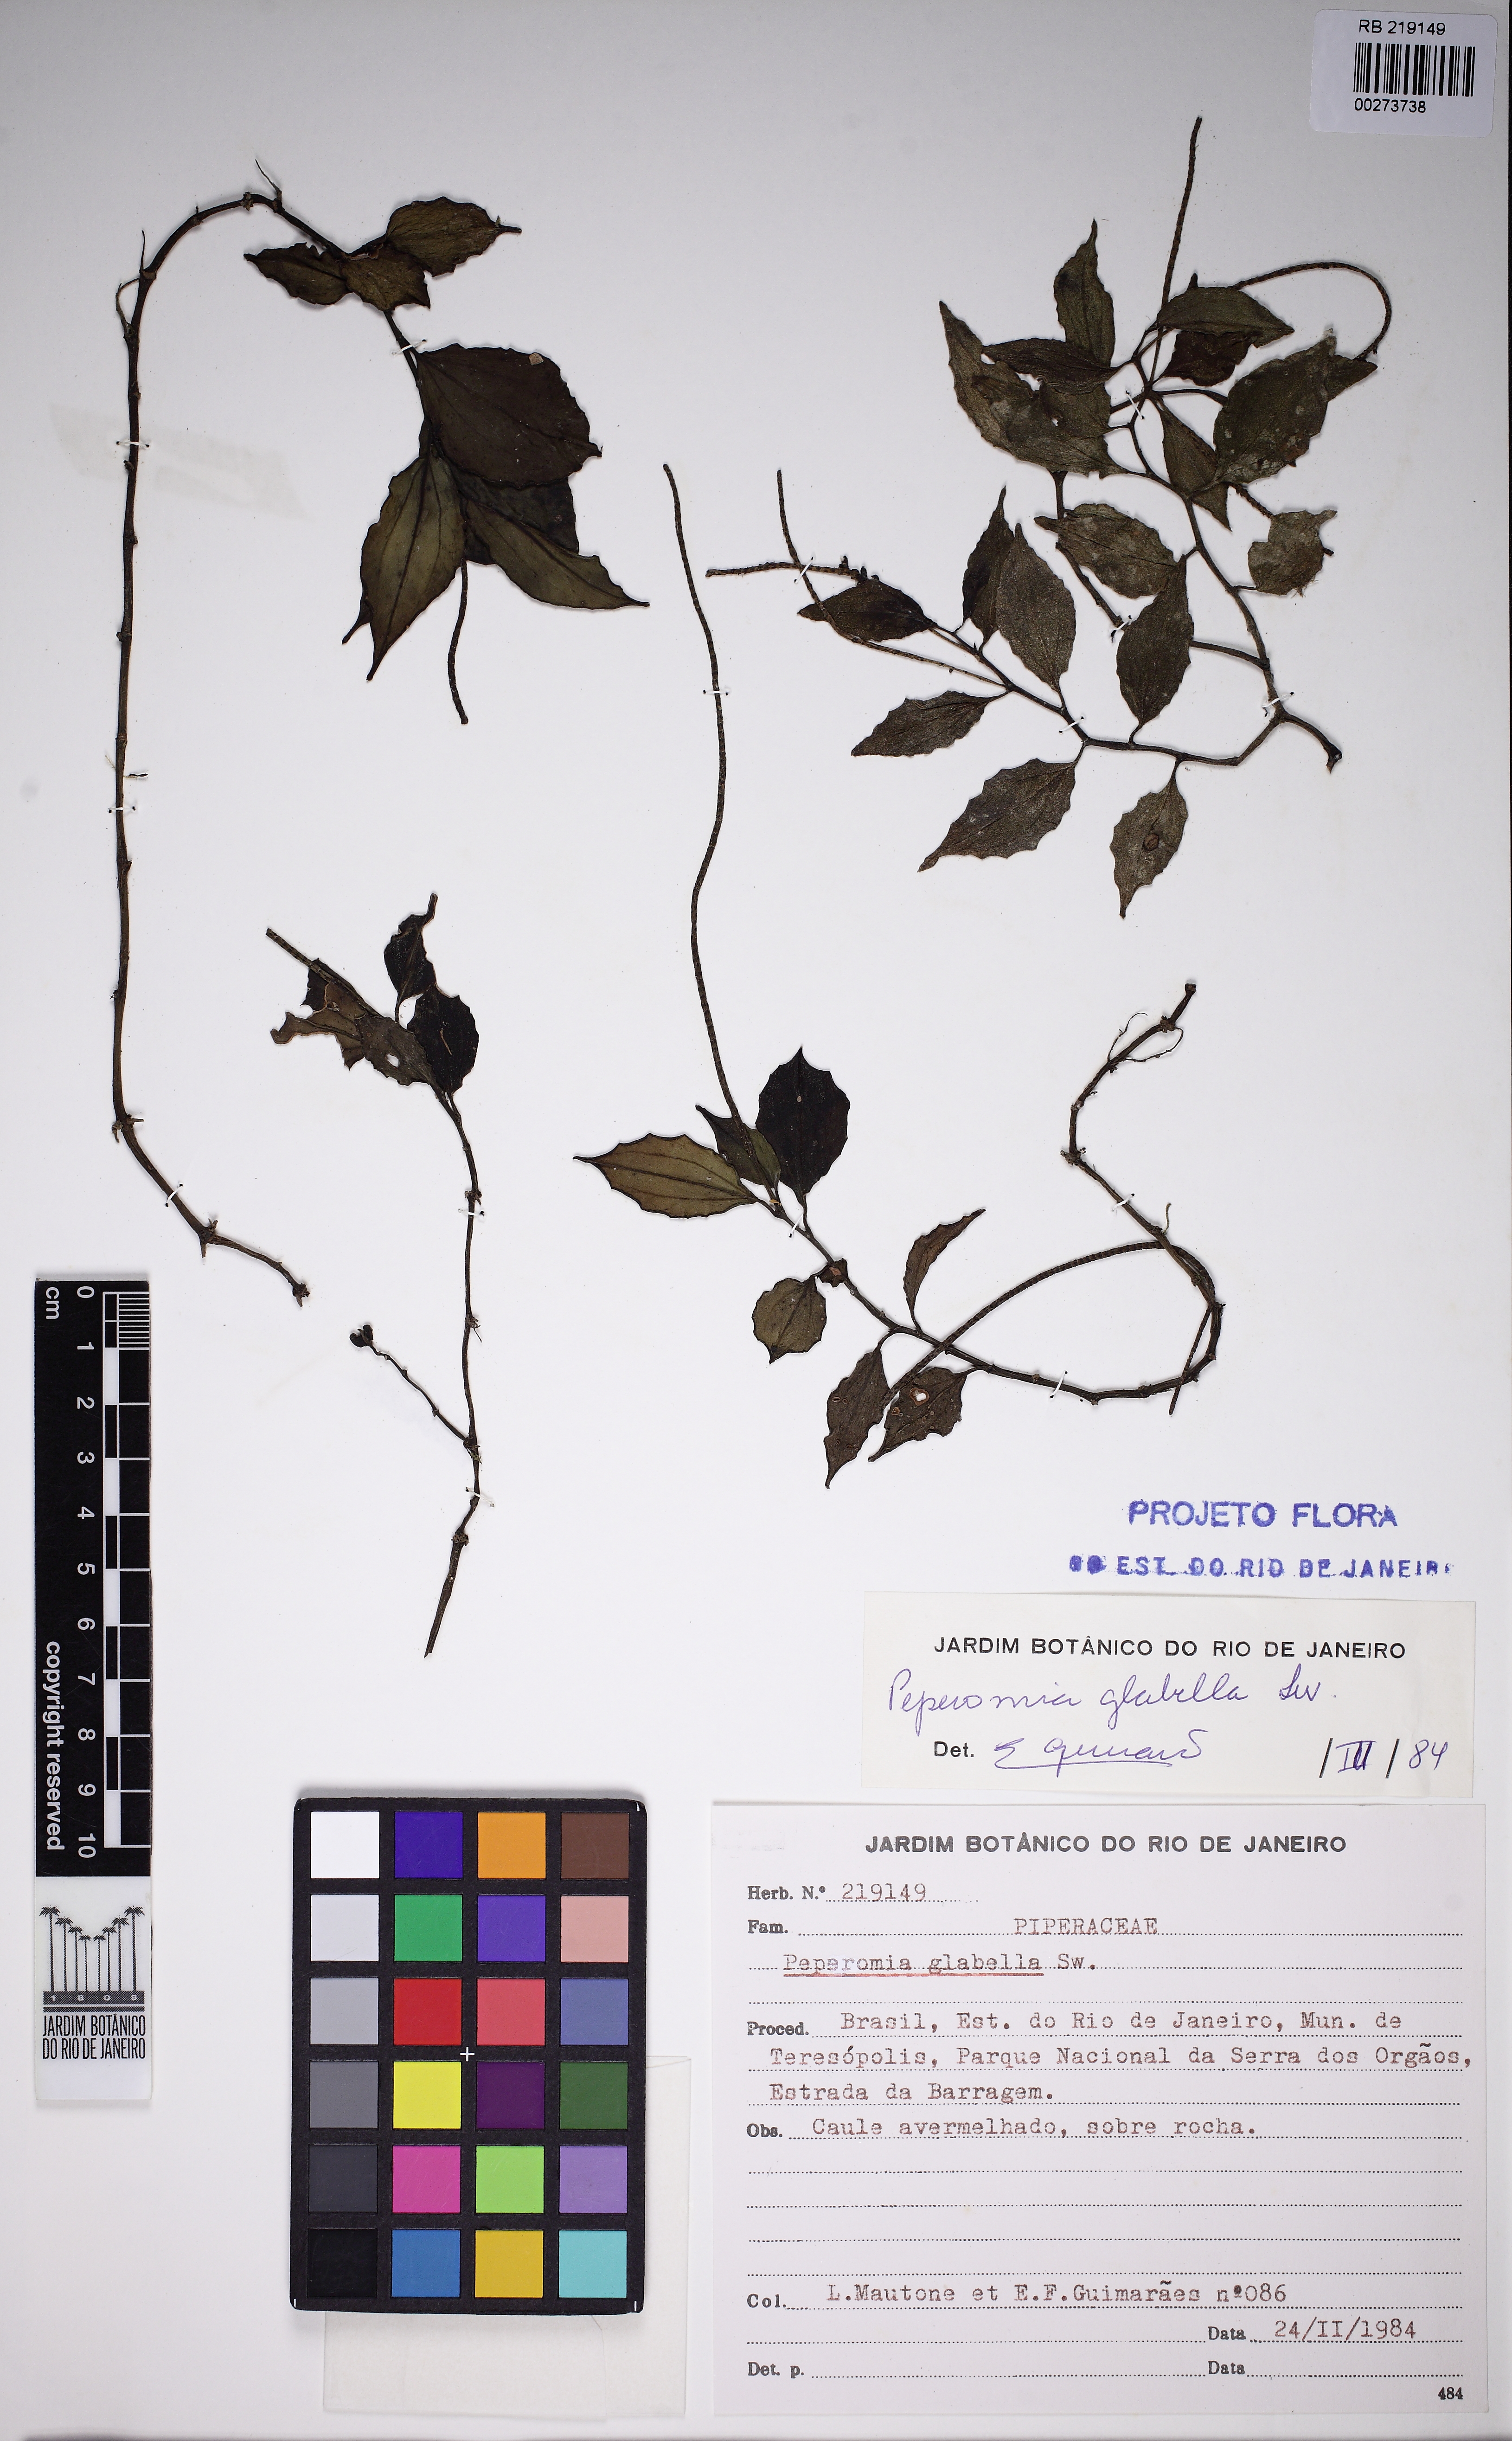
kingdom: Plantae
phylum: Tracheophyta
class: Magnoliopsida
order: Piperales
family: Piperaceae
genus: Peperomia
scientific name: Peperomia glabella
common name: Cypress peperomia
